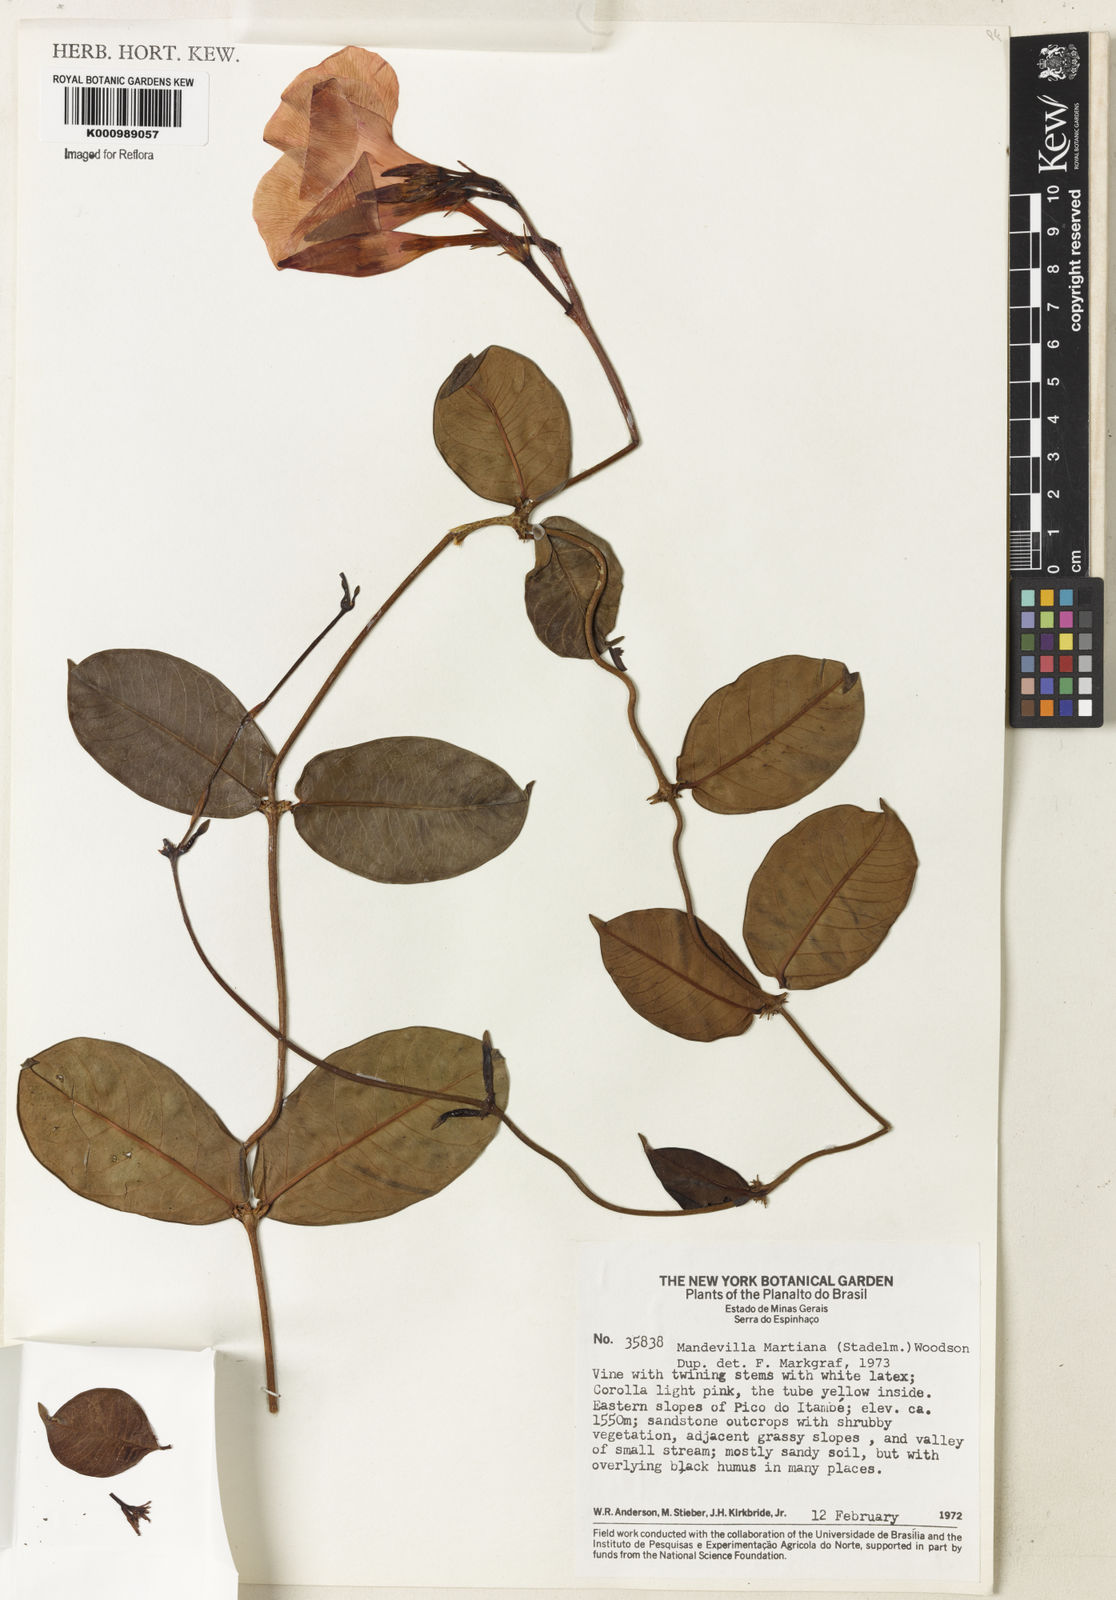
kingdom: Plantae
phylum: Tracheophyta
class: Magnoliopsida
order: Gentianales
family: Apocynaceae
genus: Mandevilla
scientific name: Mandevilla martiana
